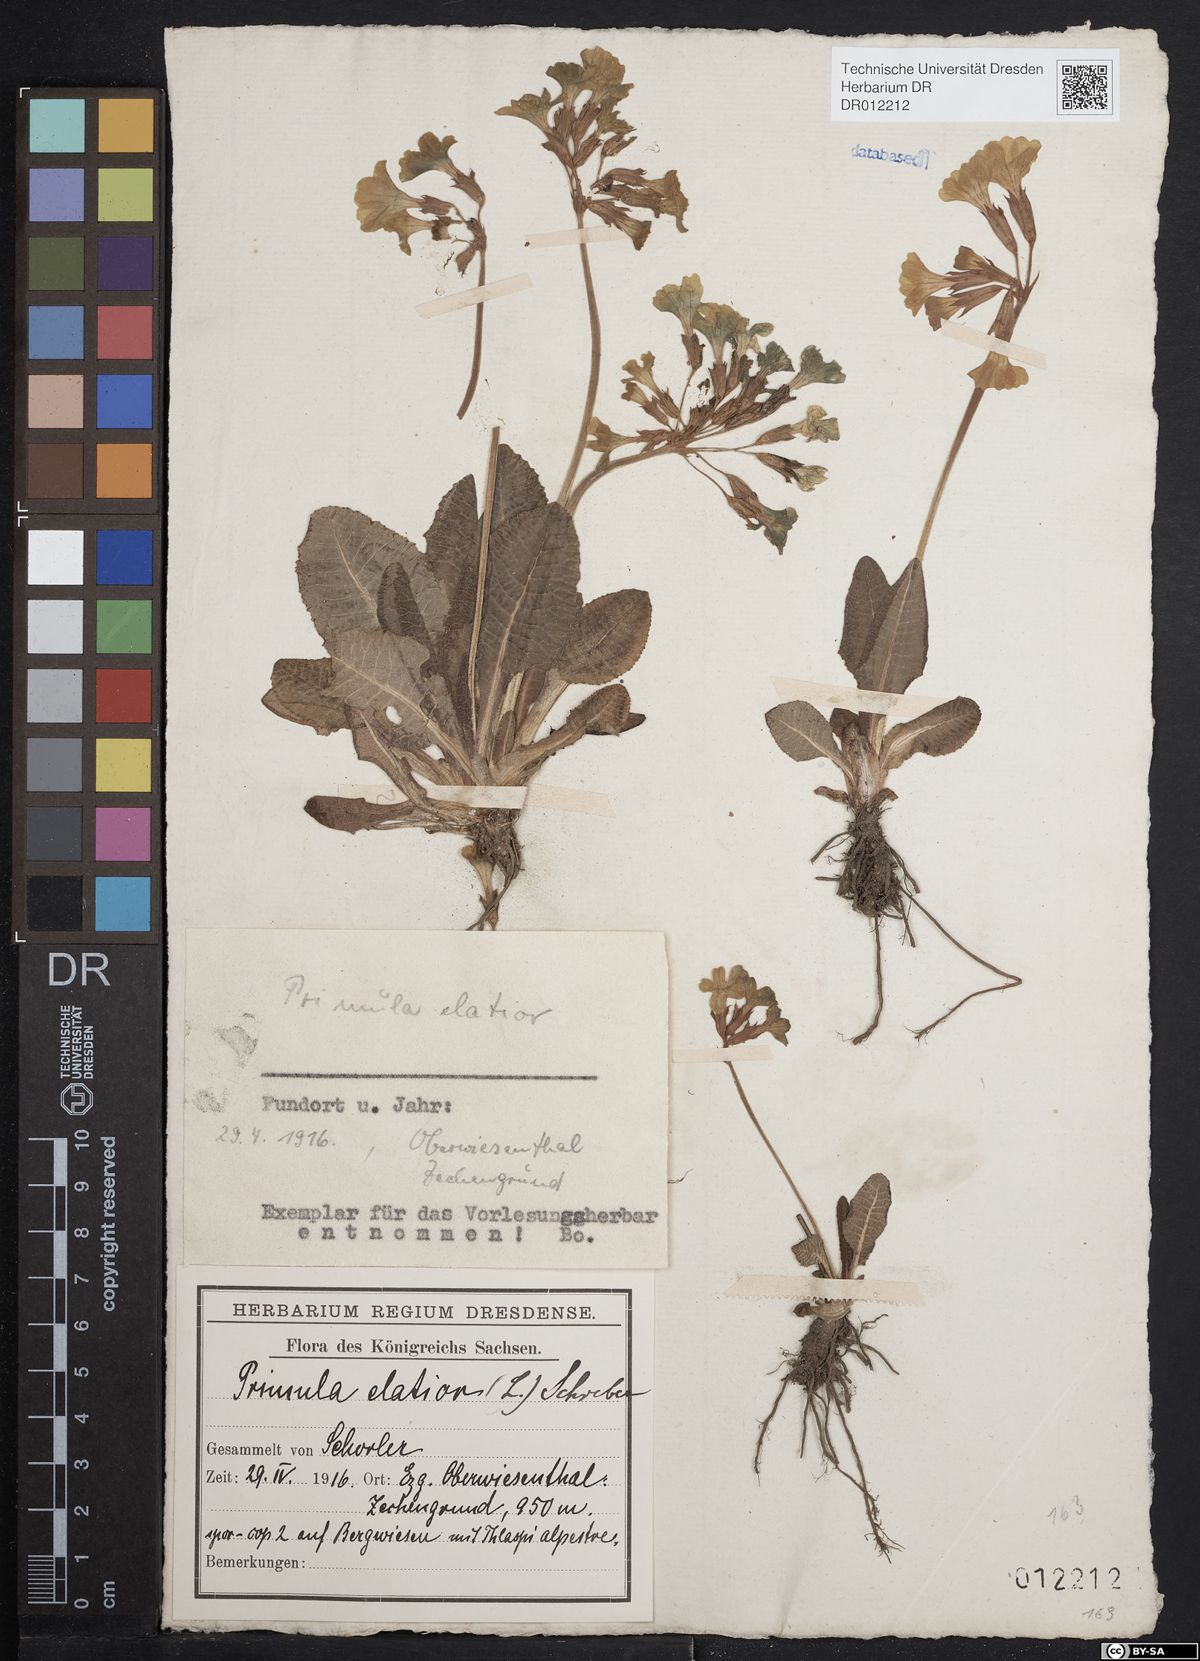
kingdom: Plantae
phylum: Tracheophyta
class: Magnoliopsida
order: Ericales
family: Primulaceae
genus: Primula
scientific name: Primula elatior
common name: Oxlip
